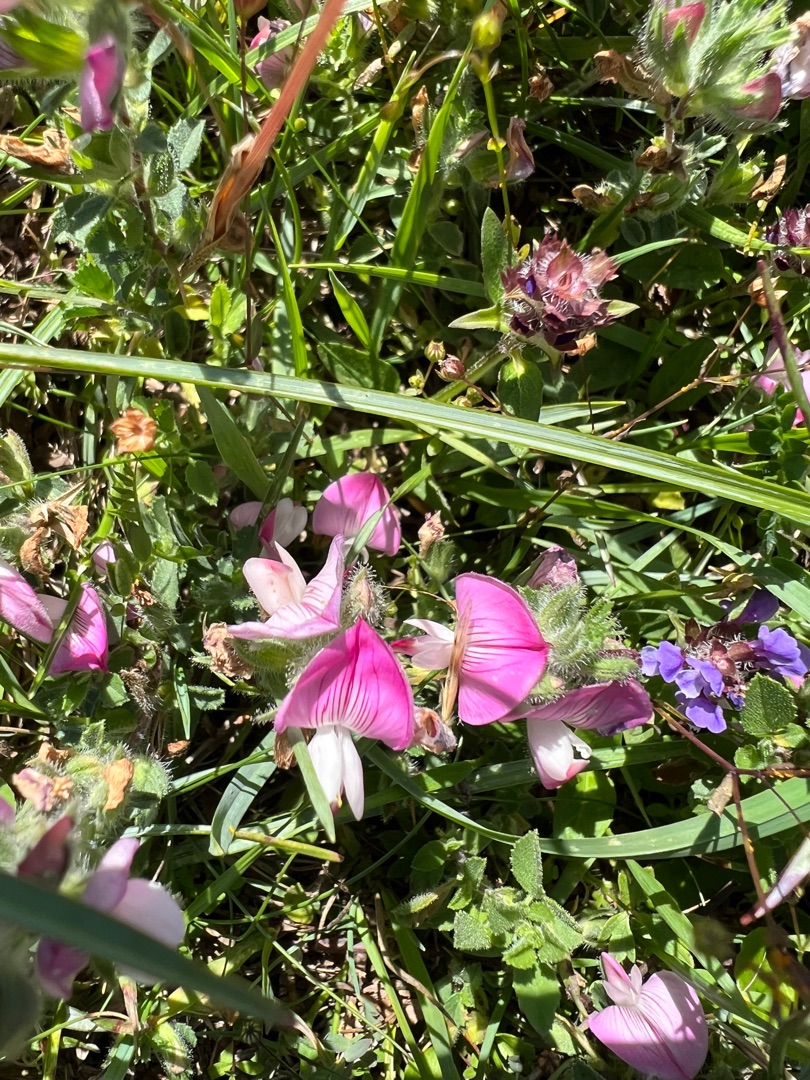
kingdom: Plantae
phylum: Tracheophyta
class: Magnoliopsida
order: Fabales
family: Fabaceae
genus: Ononis
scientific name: Ononis spinosa
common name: Mark-krageklo
